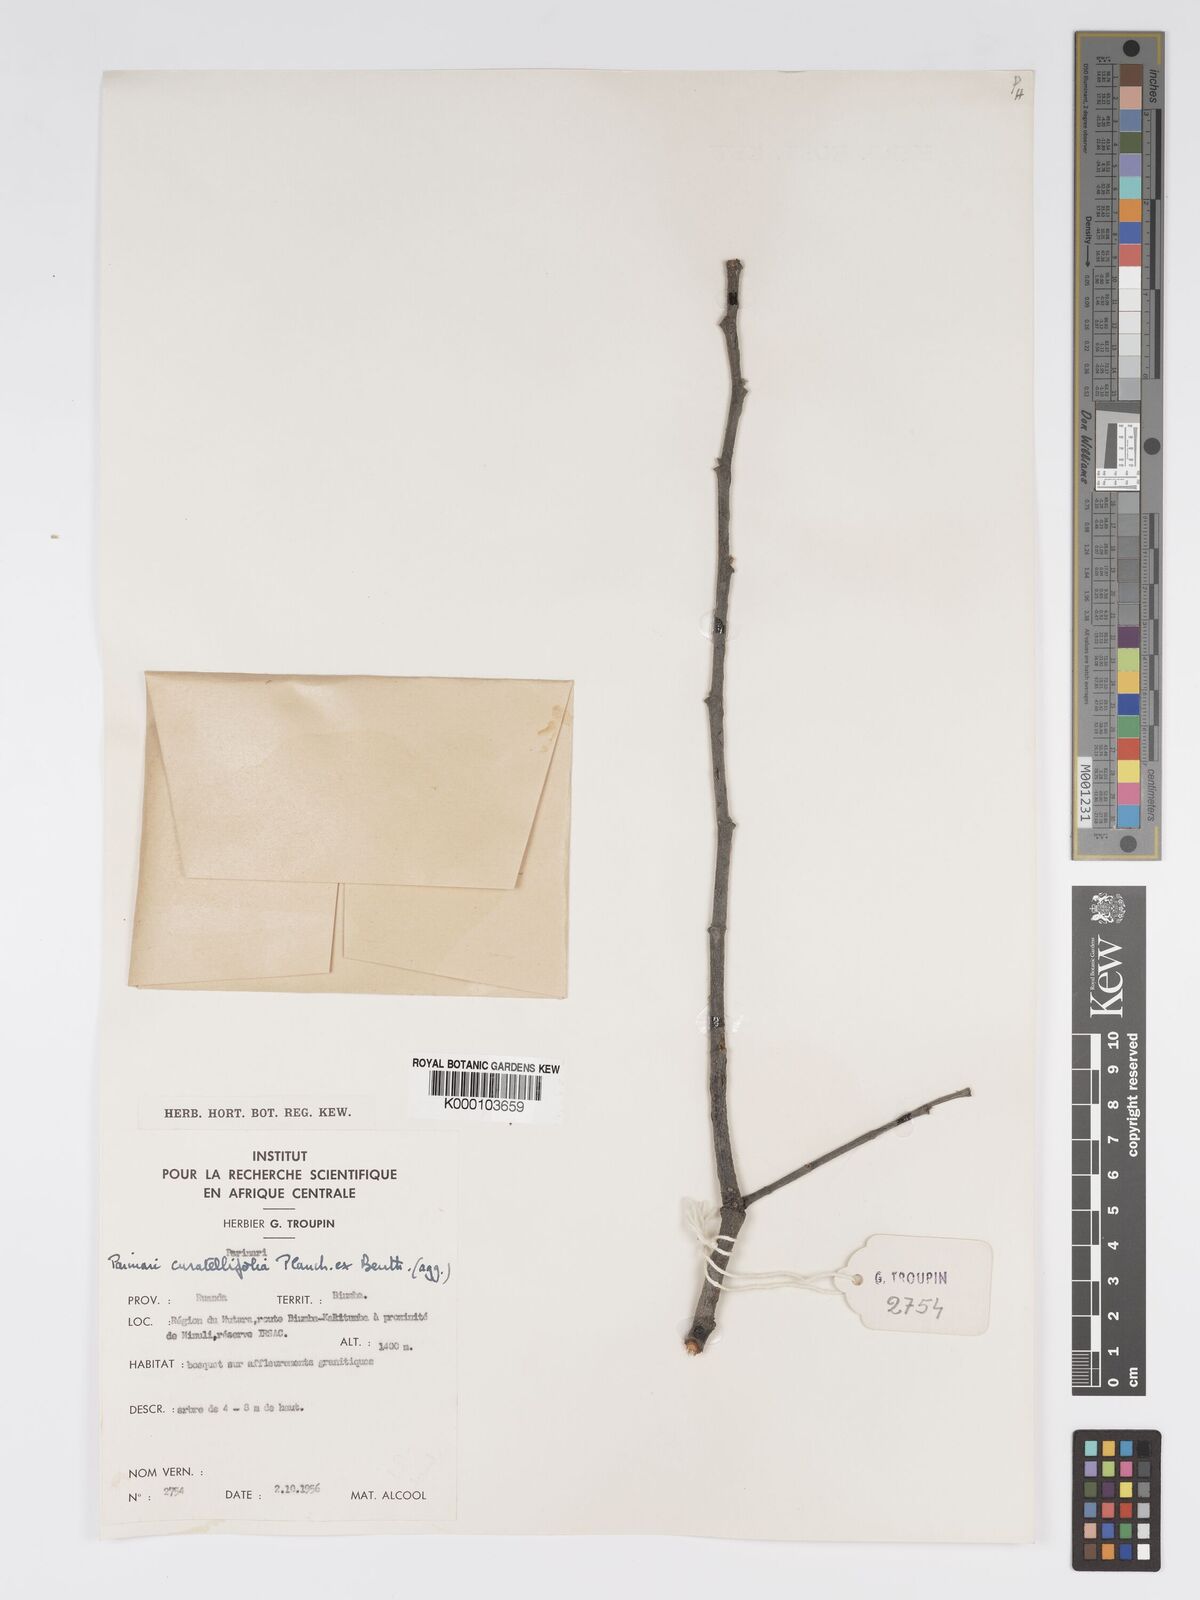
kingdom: Plantae
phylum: Tracheophyta
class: Magnoliopsida
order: Malpighiales
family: Chrysobalanaceae
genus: Parinari
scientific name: Parinari curatellifolia
